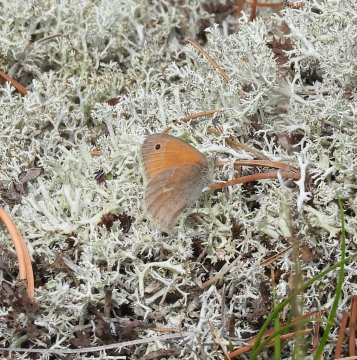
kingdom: Animalia
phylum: Arthropoda
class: Insecta
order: Lepidoptera
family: Nymphalidae
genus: Coenonympha
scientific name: Coenonympha tullia
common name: Large Heath
